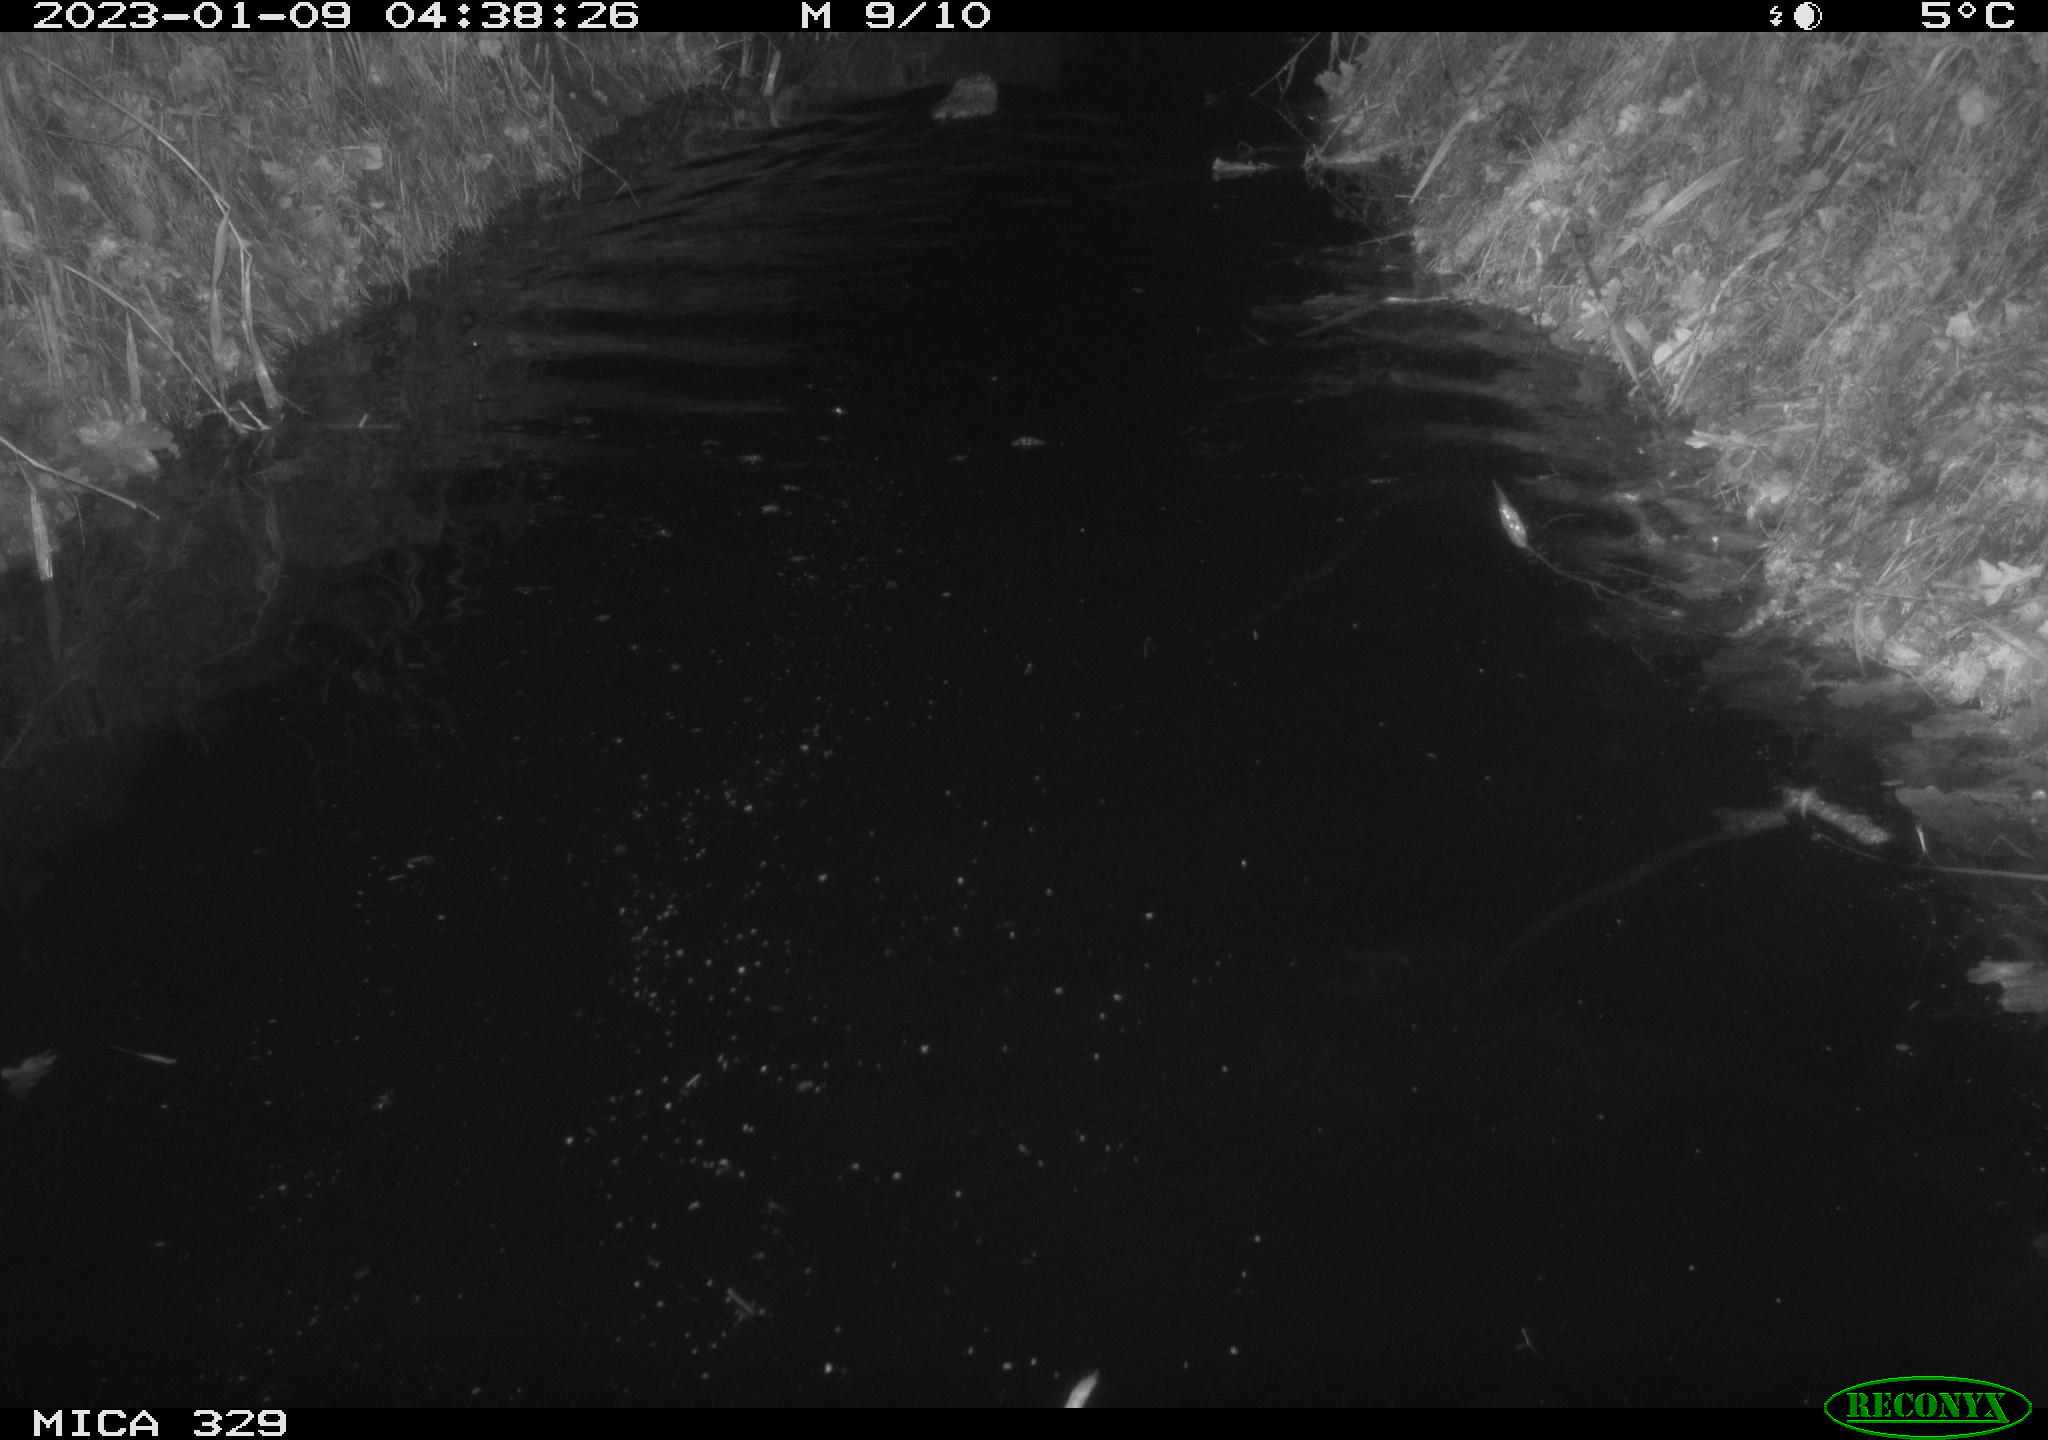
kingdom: Animalia
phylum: Chordata
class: Mammalia
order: Rodentia
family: Cricetidae
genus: Ondatra
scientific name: Ondatra zibethicus
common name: Muskrat
